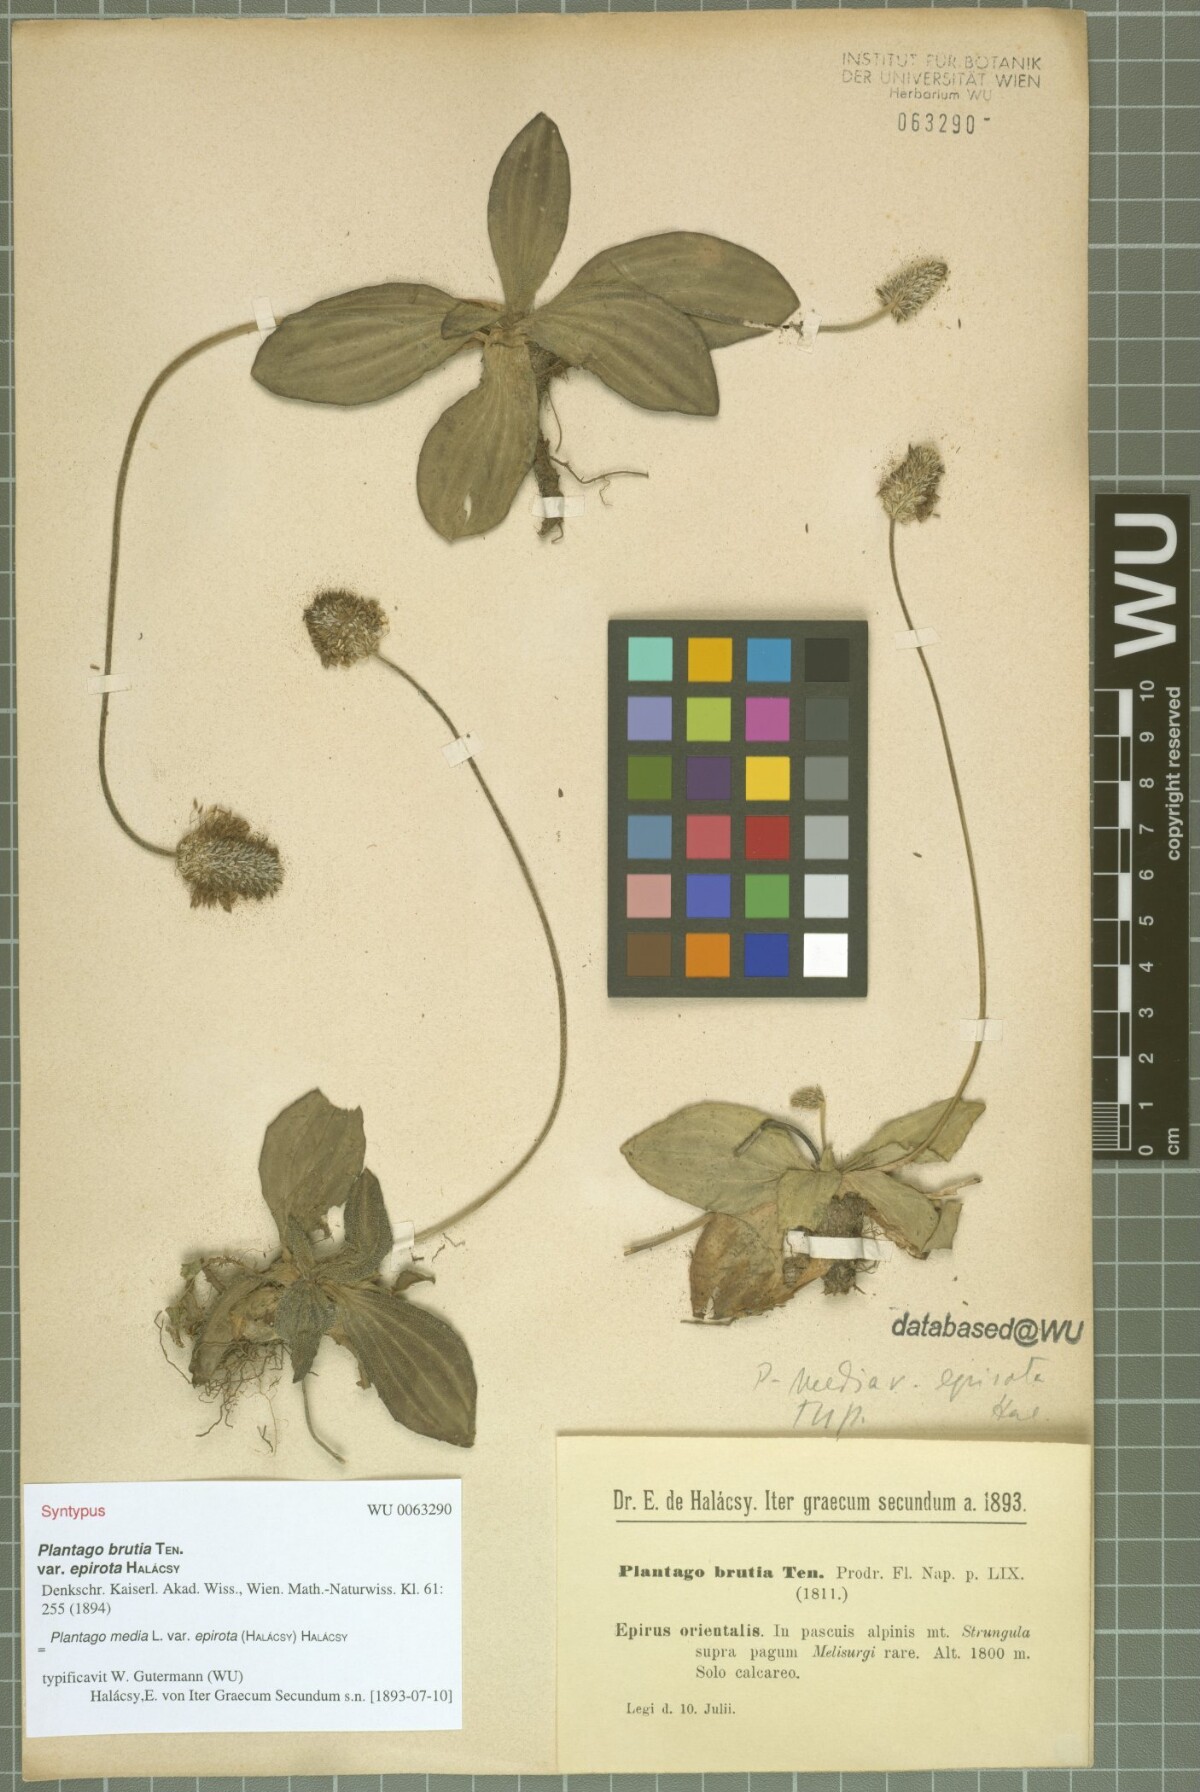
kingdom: Plantae
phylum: Tracheophyta
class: Magnoliopsida
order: Lamiales
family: Plantaginaceae
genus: Plantago
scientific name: Plantago media
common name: Hoary plantain
